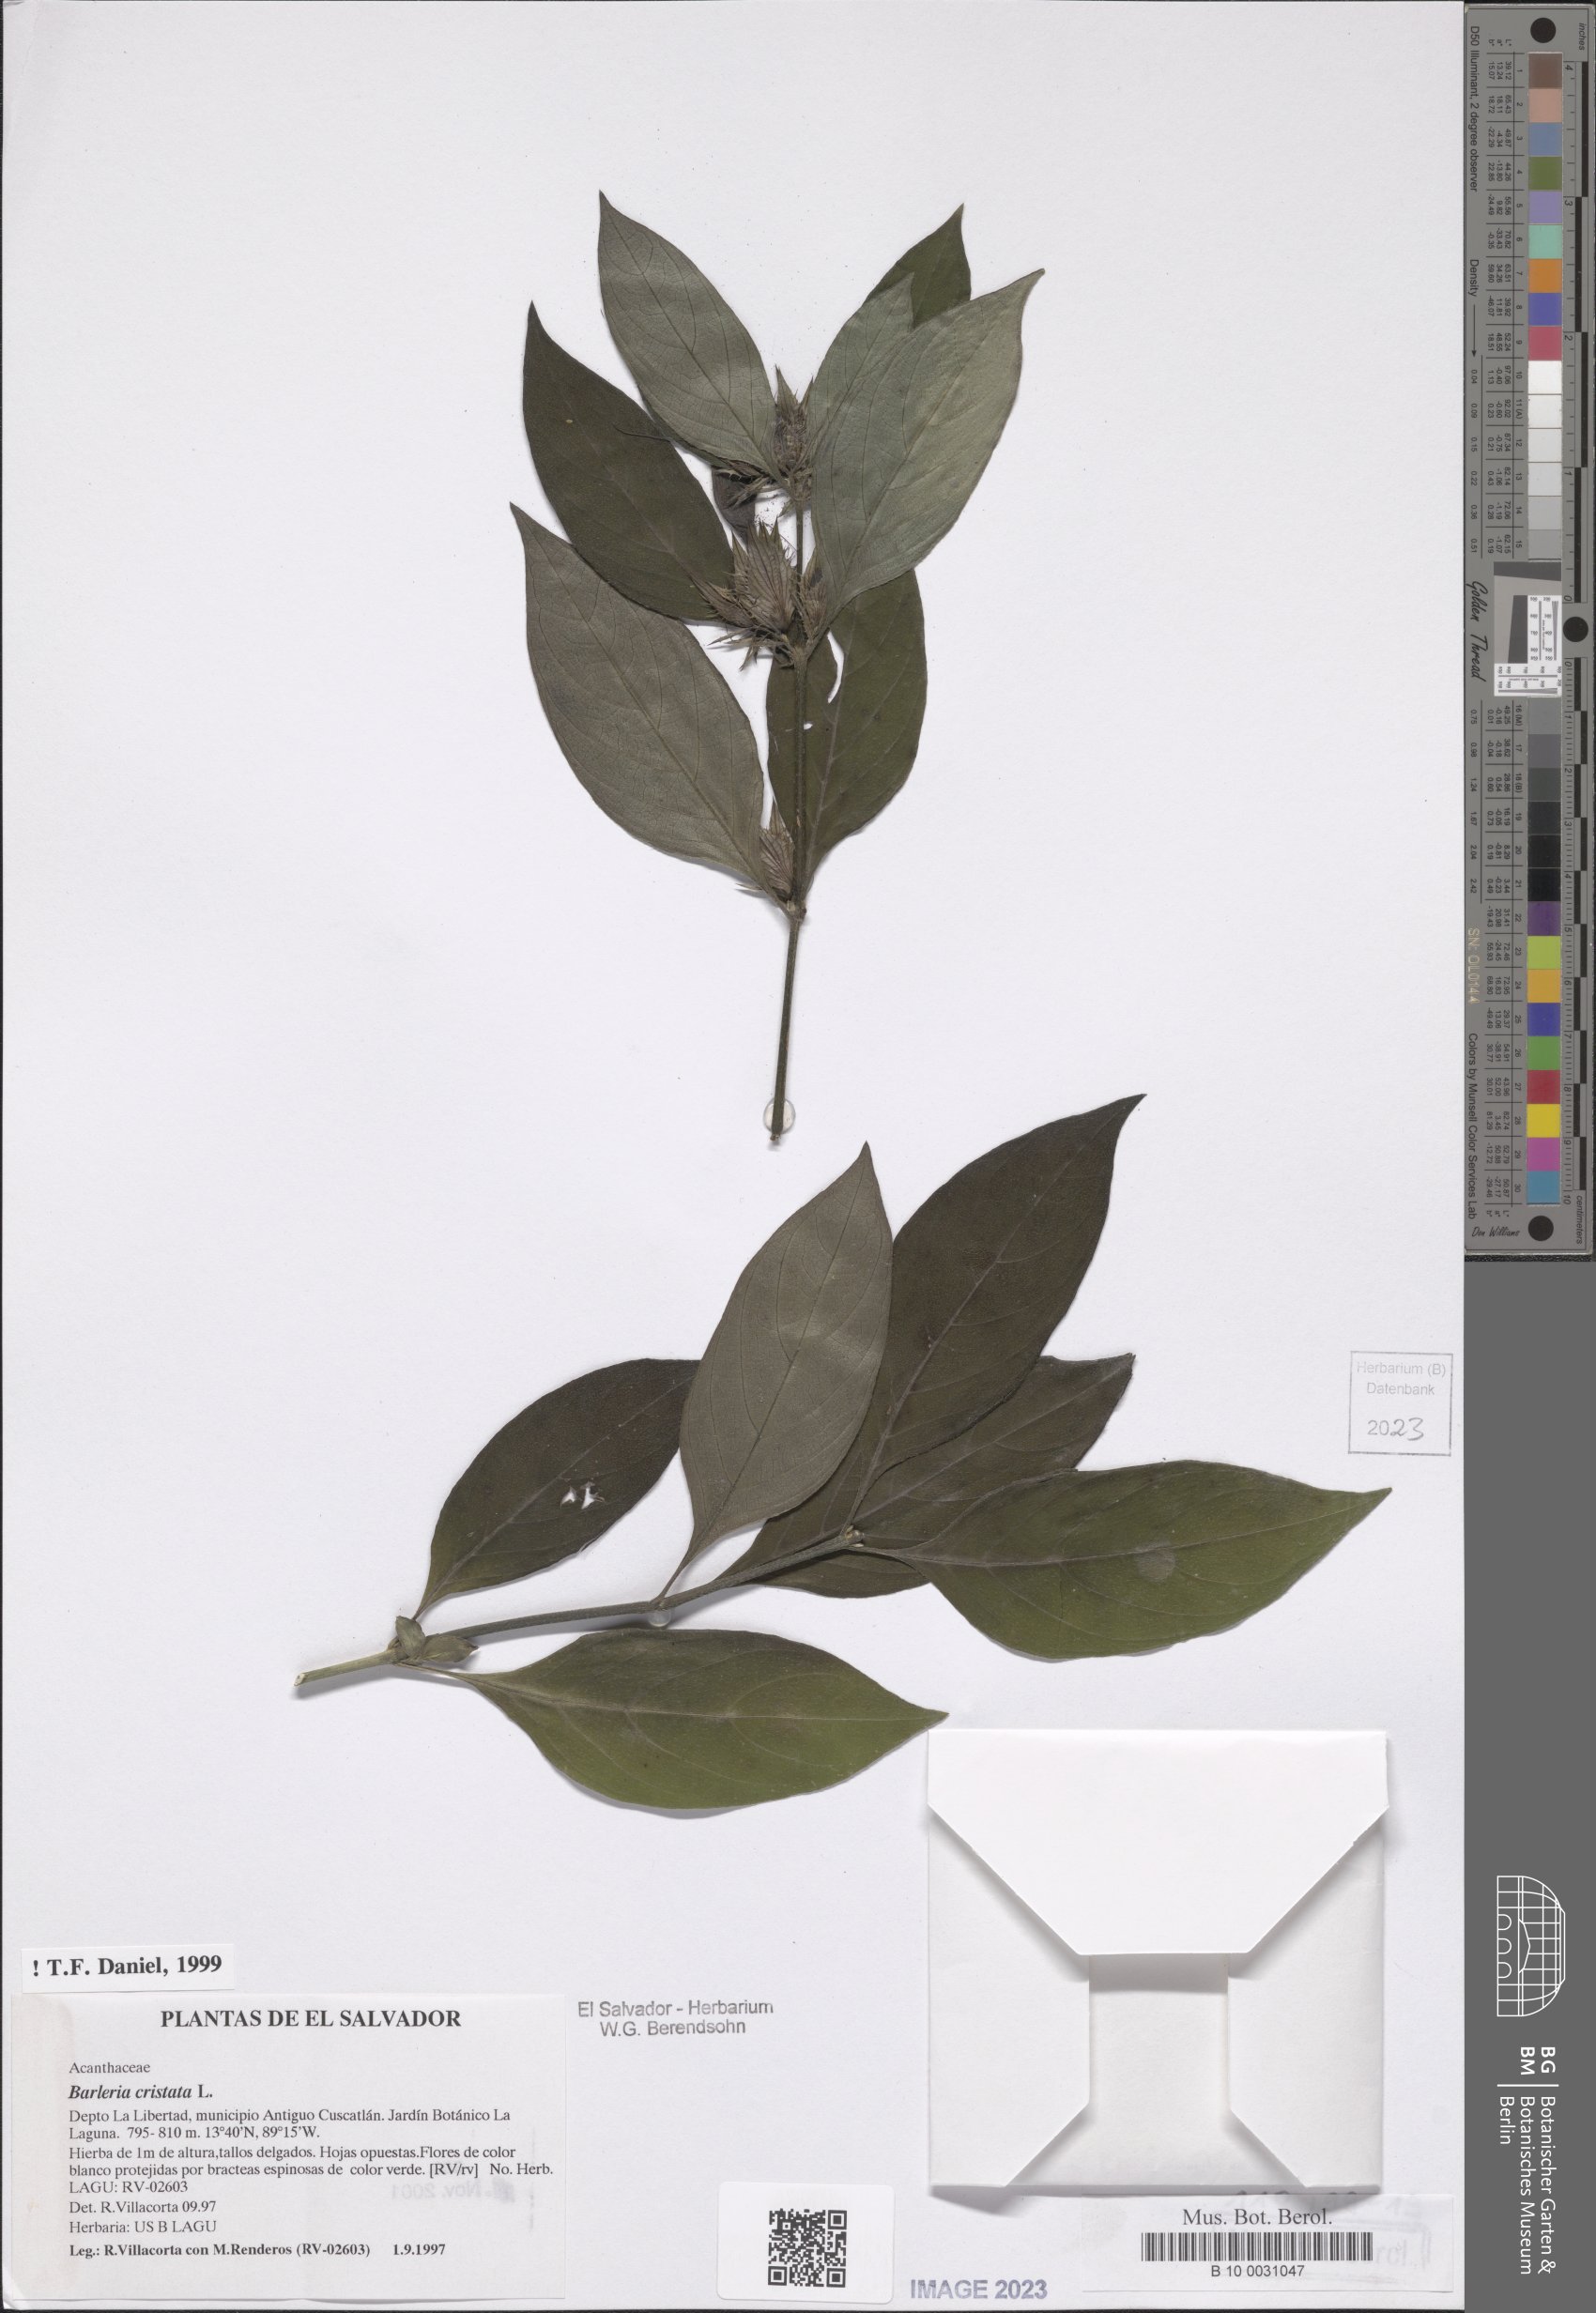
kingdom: Plantae
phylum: Tracheophyta
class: Magnoliopsida
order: Lamiales
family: Acanthaceae
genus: Barleria
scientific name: Barleria cristata
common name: Crested philippine violet
